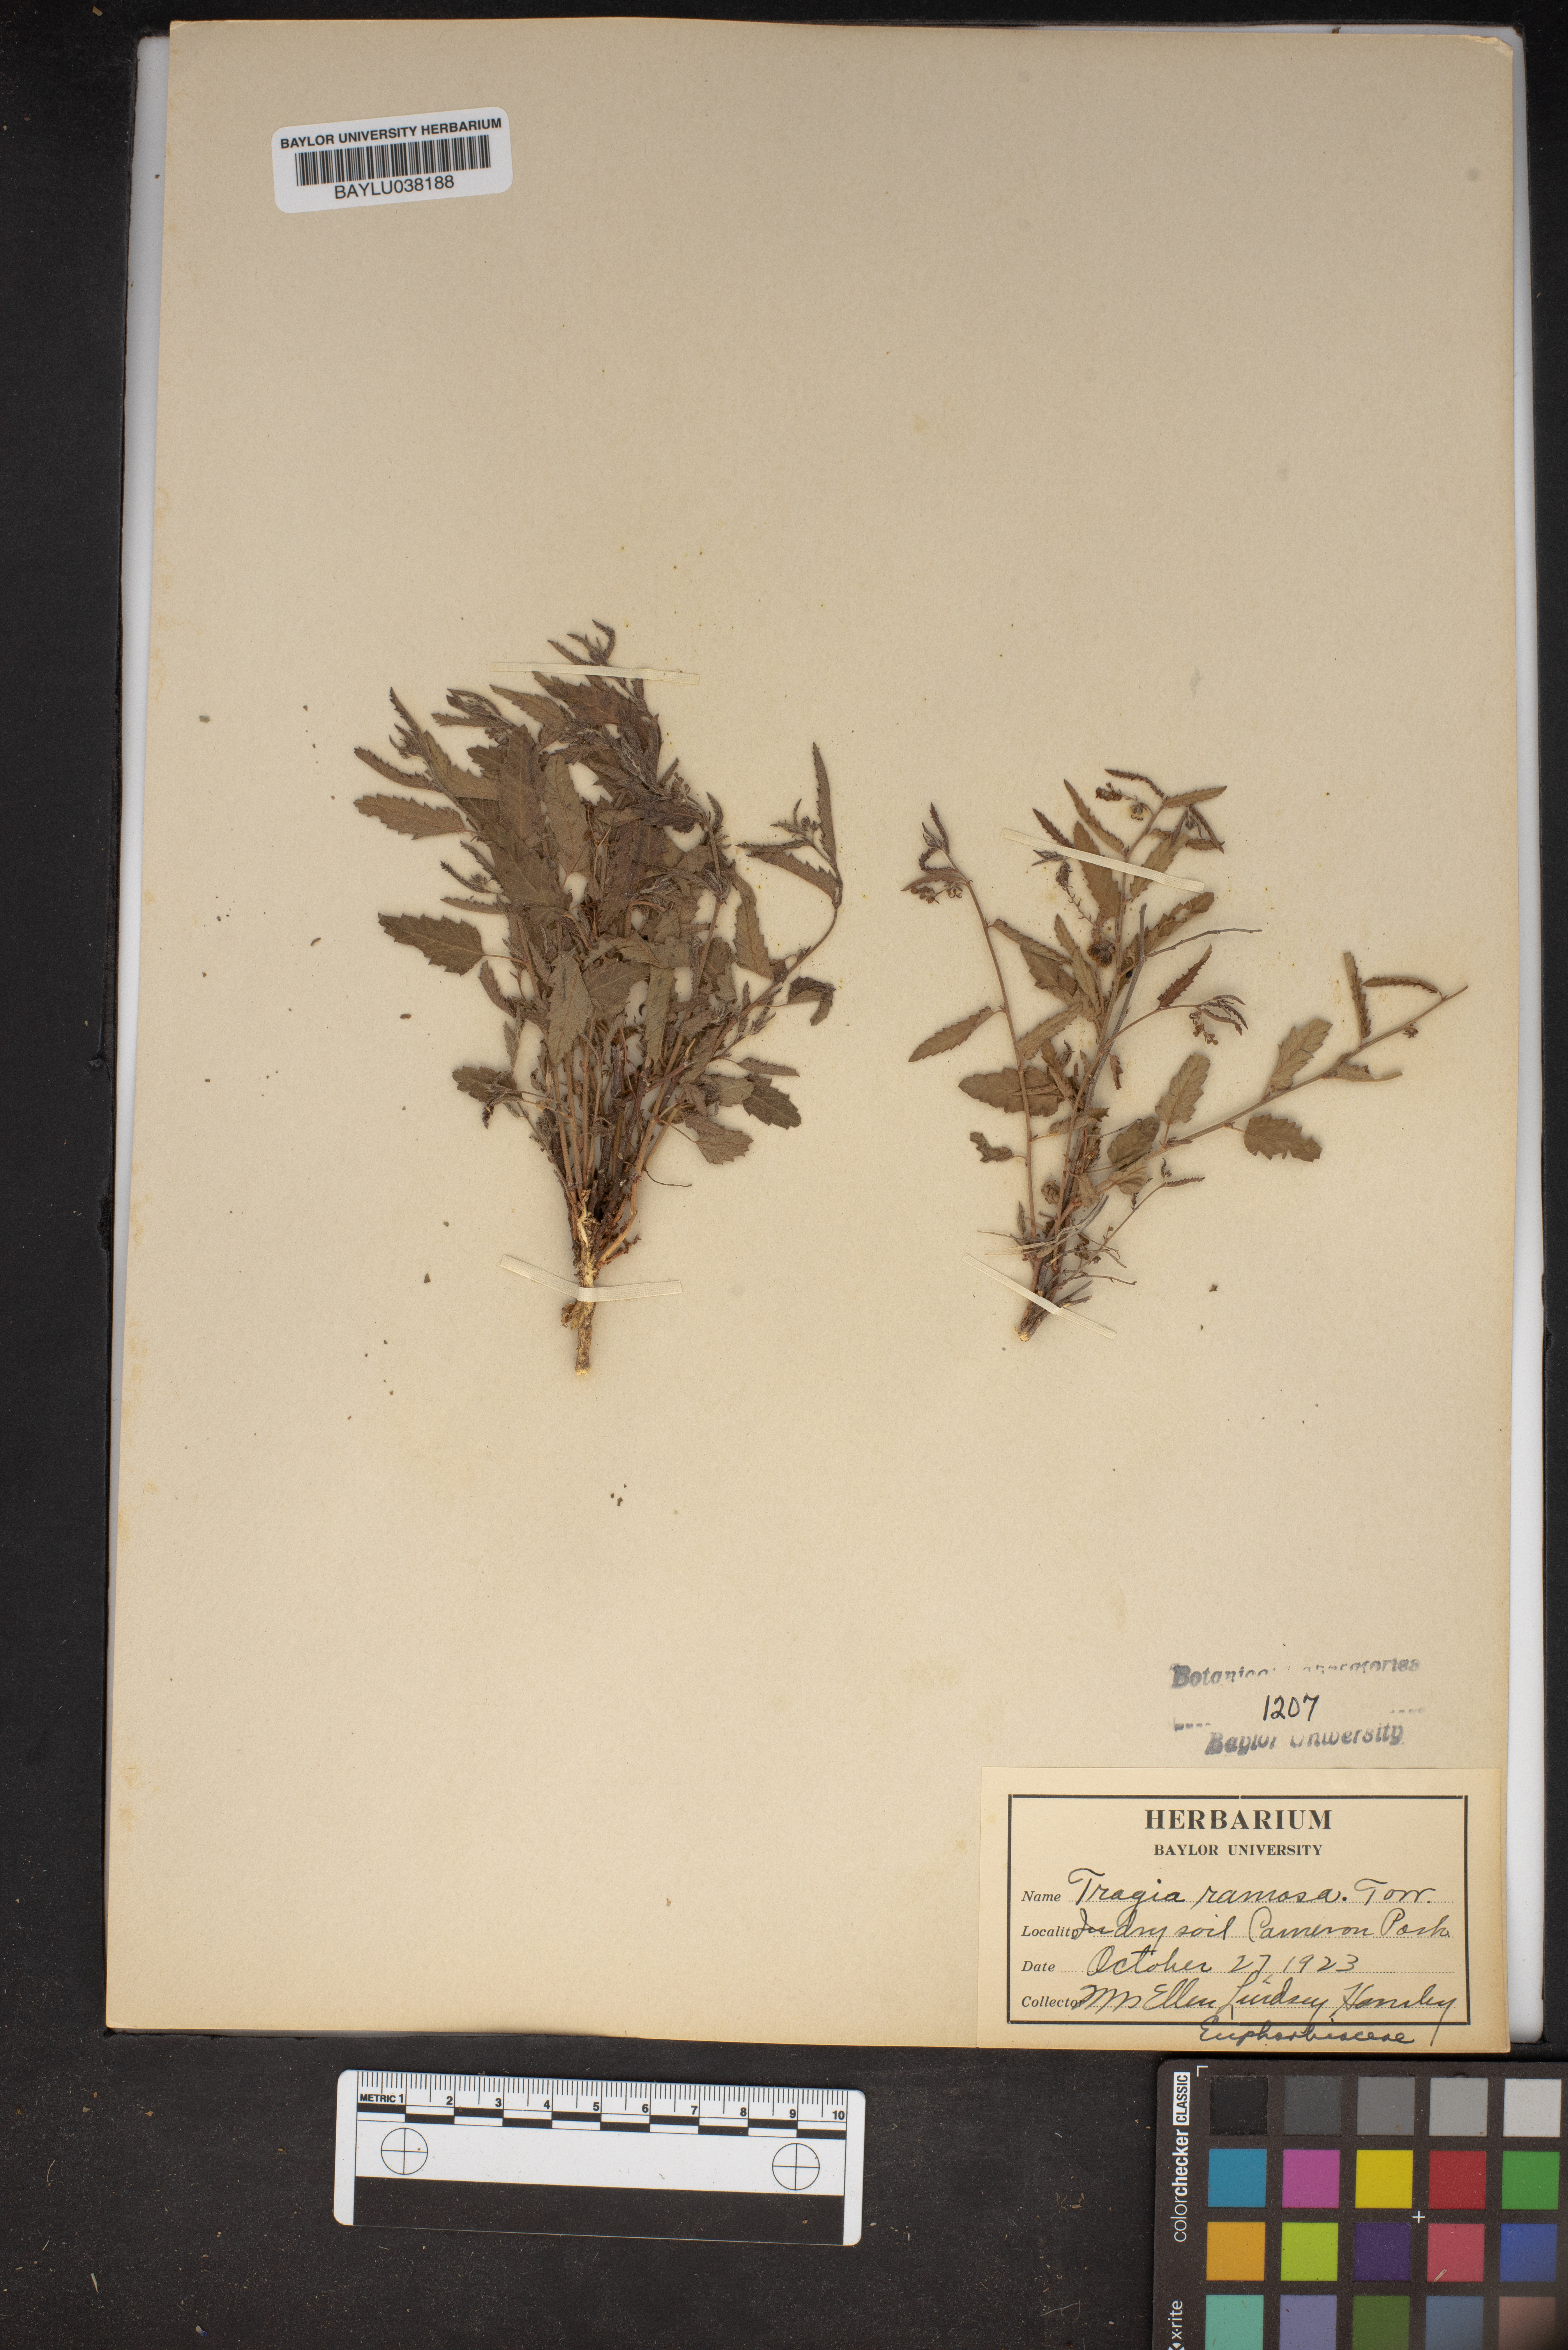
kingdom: Plantae
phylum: Tracheophyta
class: Magnoliopsida
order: Malpighiales
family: Euphorbiaceae
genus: Tragia
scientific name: Tragia ramosa
